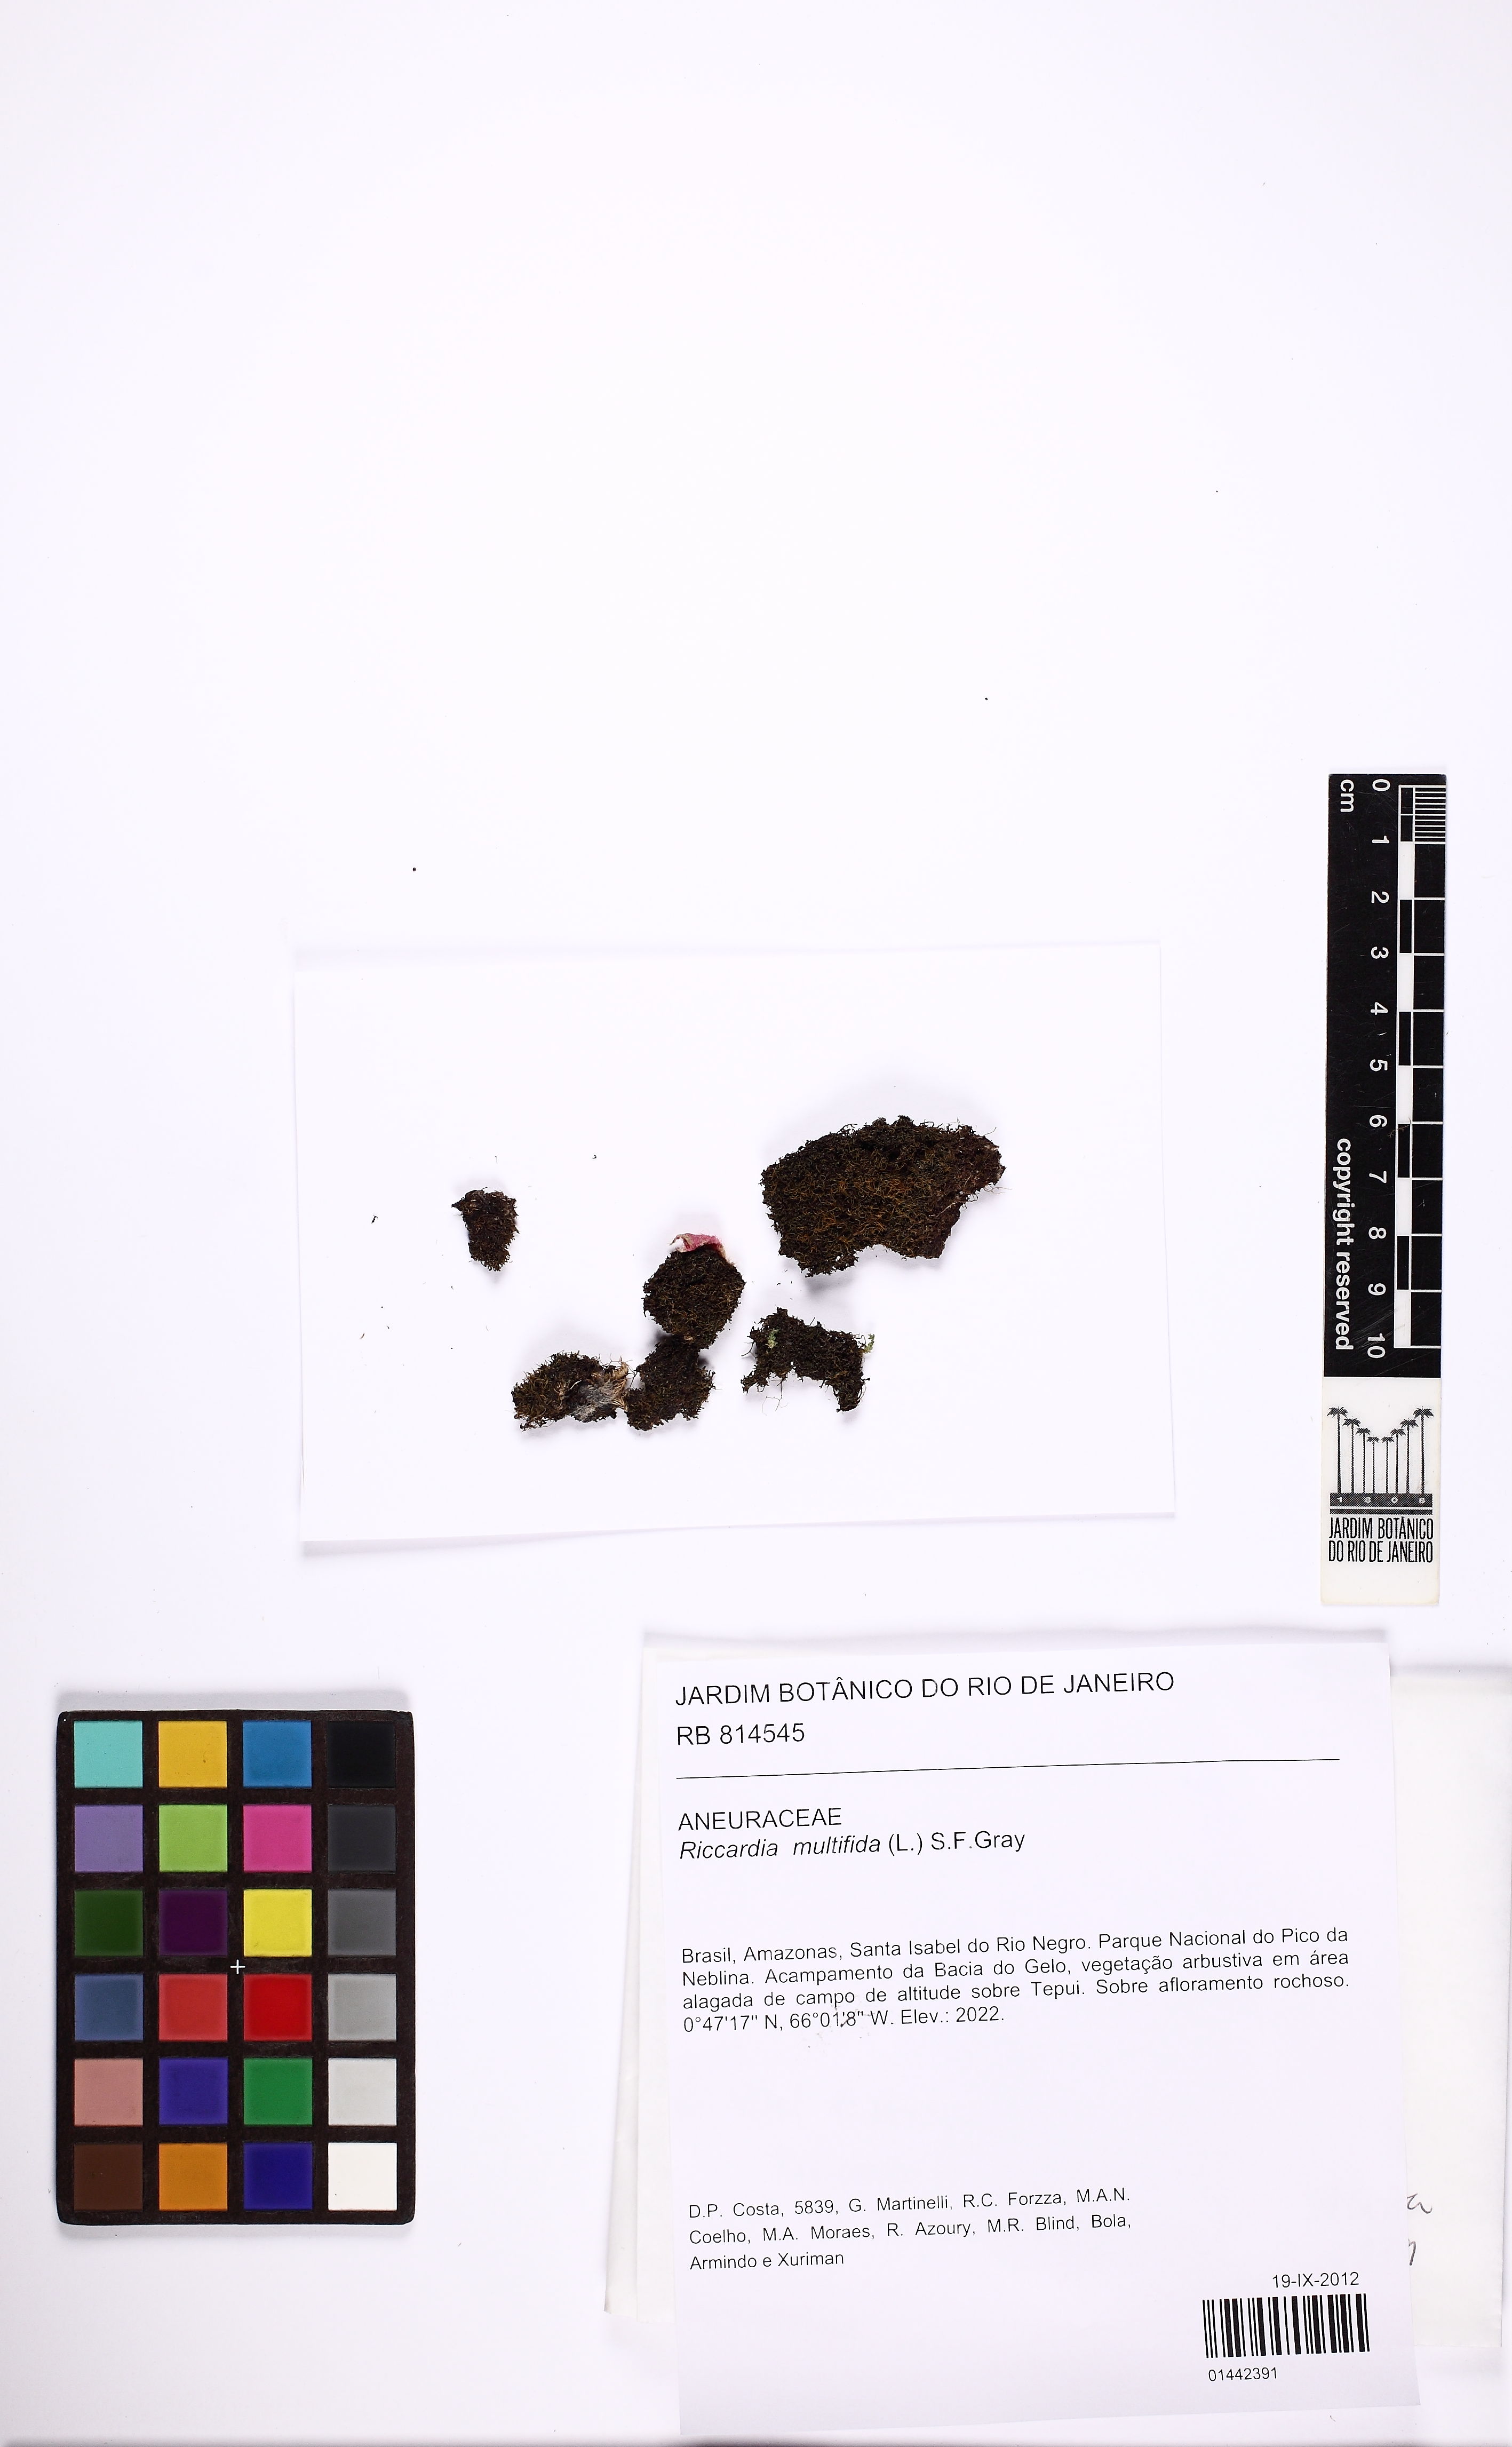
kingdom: Plantae
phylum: Marchantiophyta
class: Jungermanniopsida
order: Metzgeriales
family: Aneuraceae
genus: Riccardia
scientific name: Riccardia multifida
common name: Delicate germanderwort
